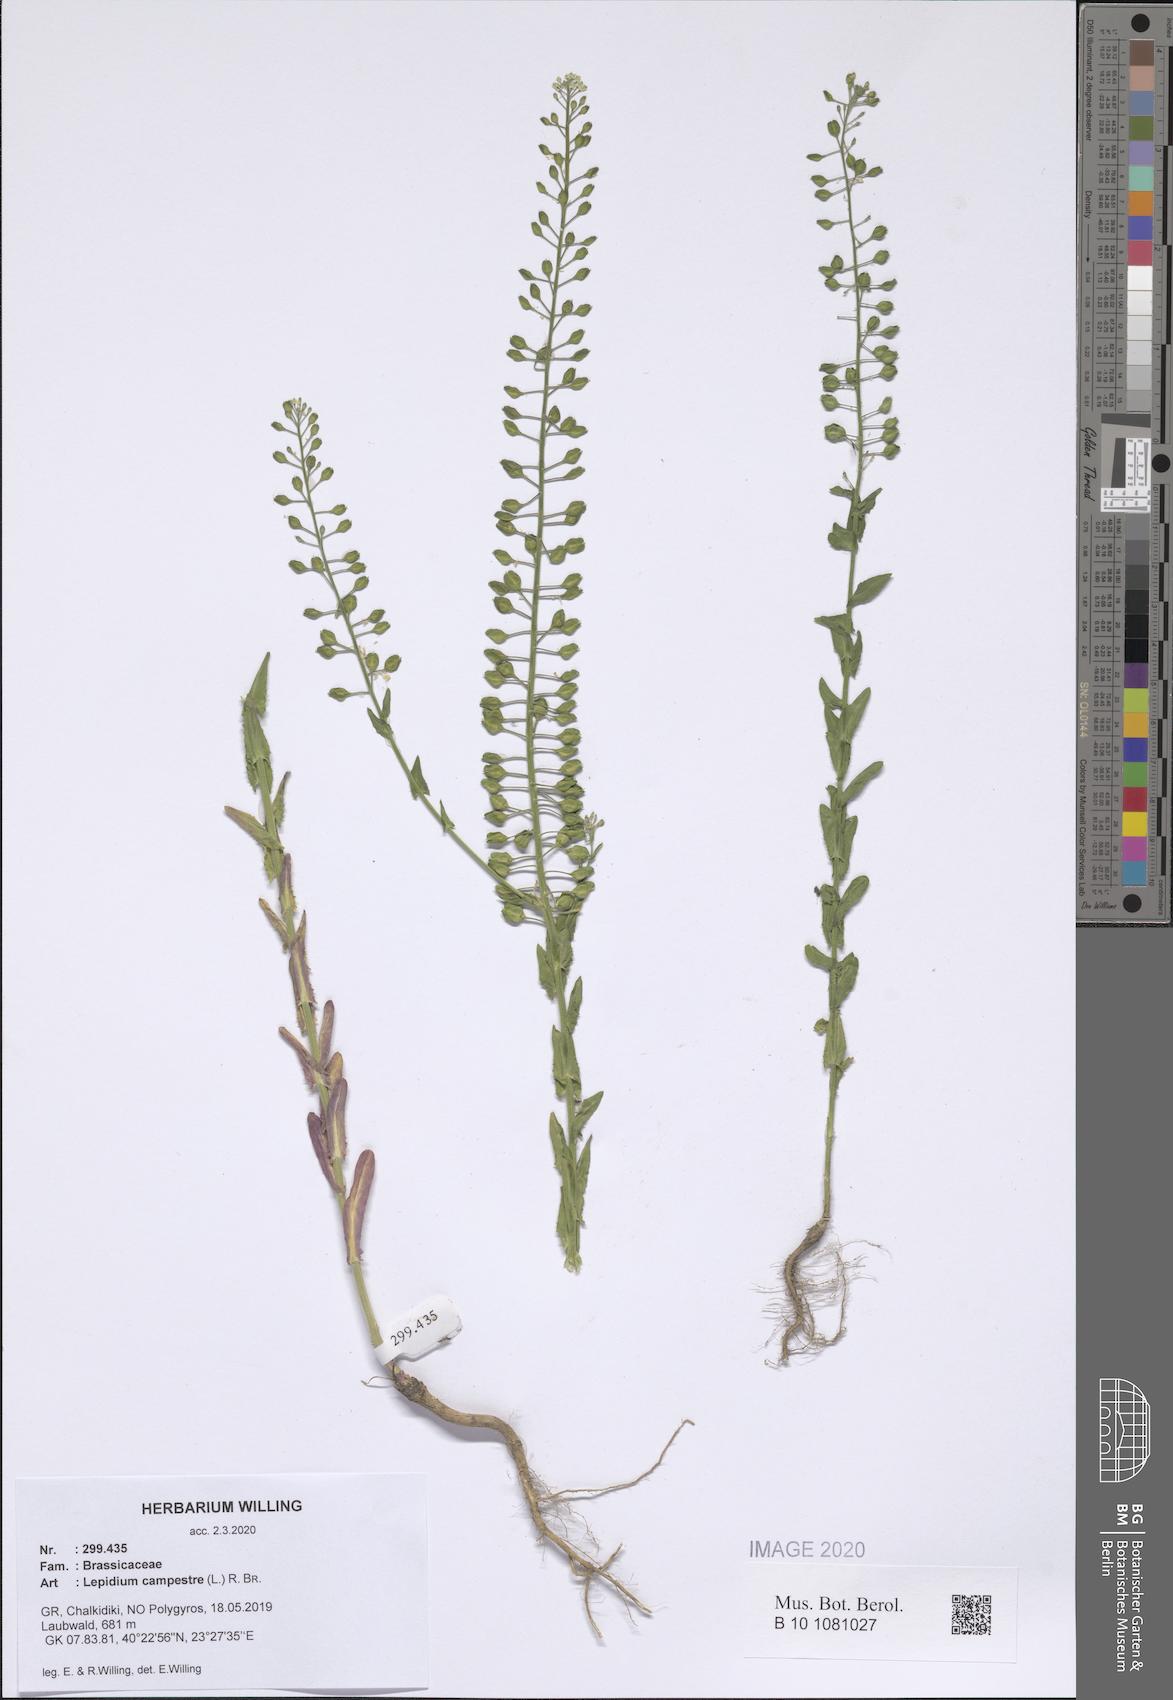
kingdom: Plantae
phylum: Tracheophyta
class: Magnoliopsida
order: Brassicales
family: Brassicaceae
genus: Lepidium
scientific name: Lepidium campestre
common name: Field pepperwort
